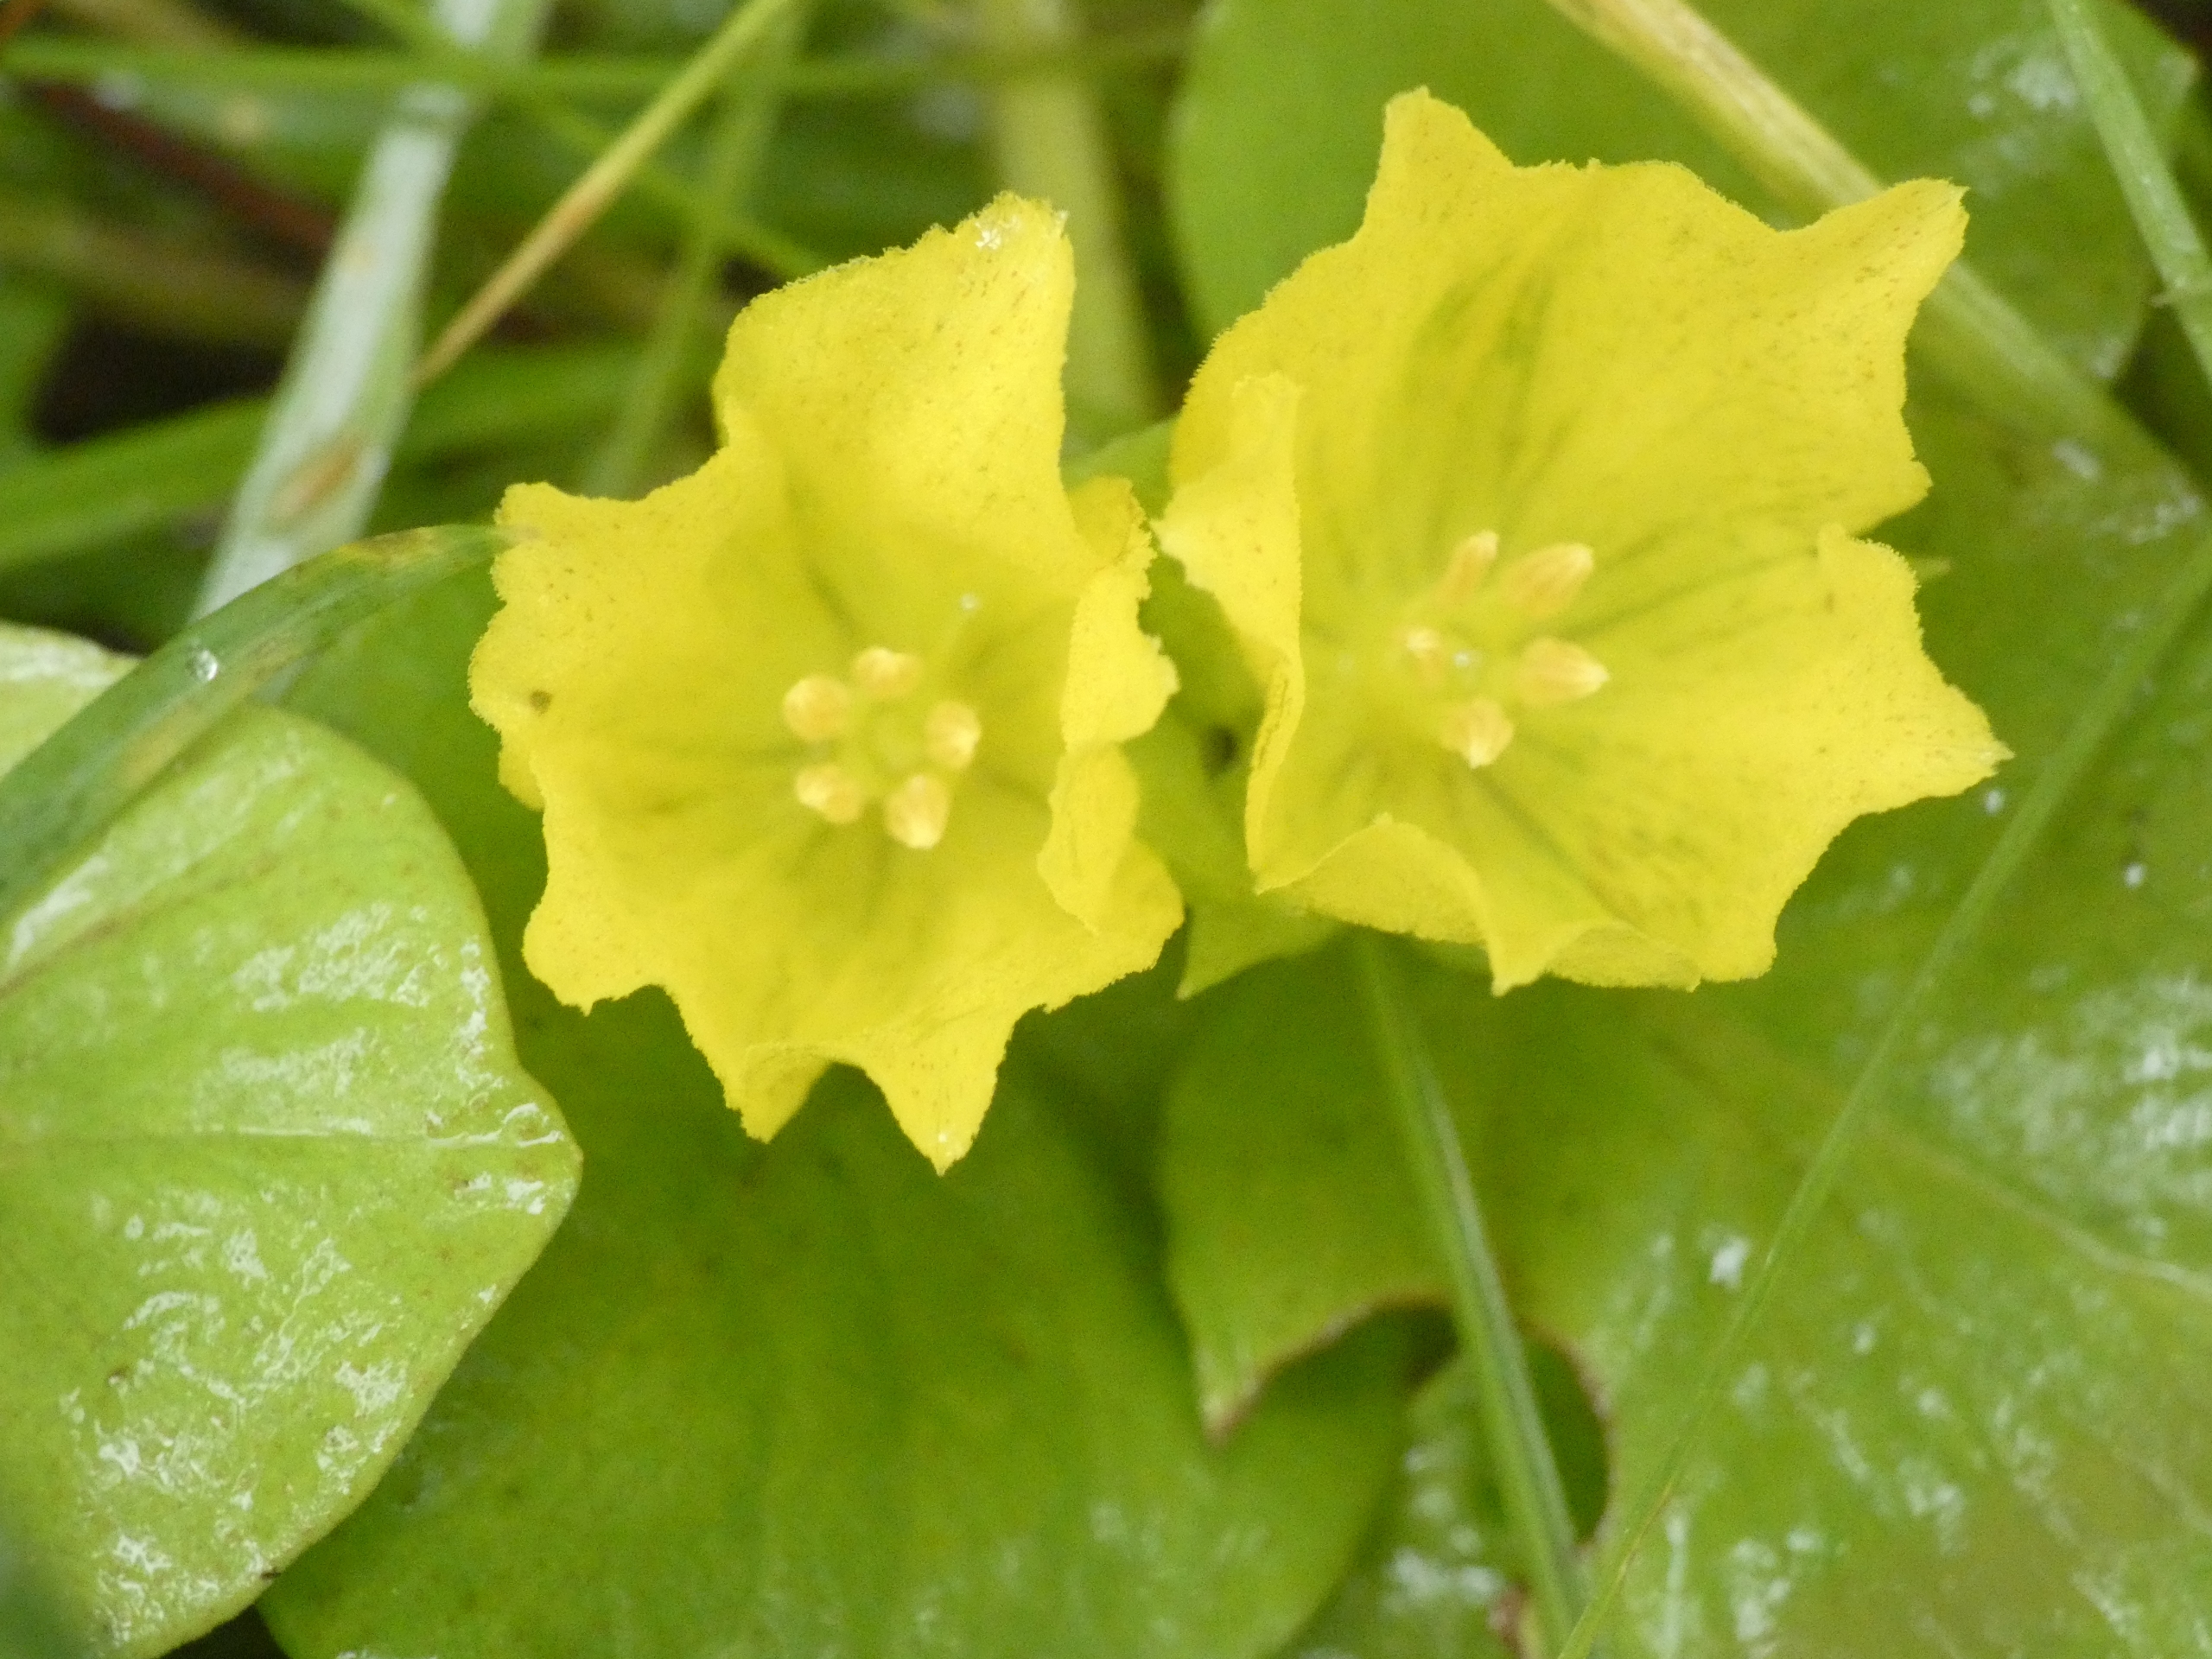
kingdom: Plantae
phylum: Tracheophyta
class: Magnoliopsida
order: Ericales
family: Primulaceae
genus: Lysimachia
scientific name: Lysimachia nummularia
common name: Pengebladet fredløs
